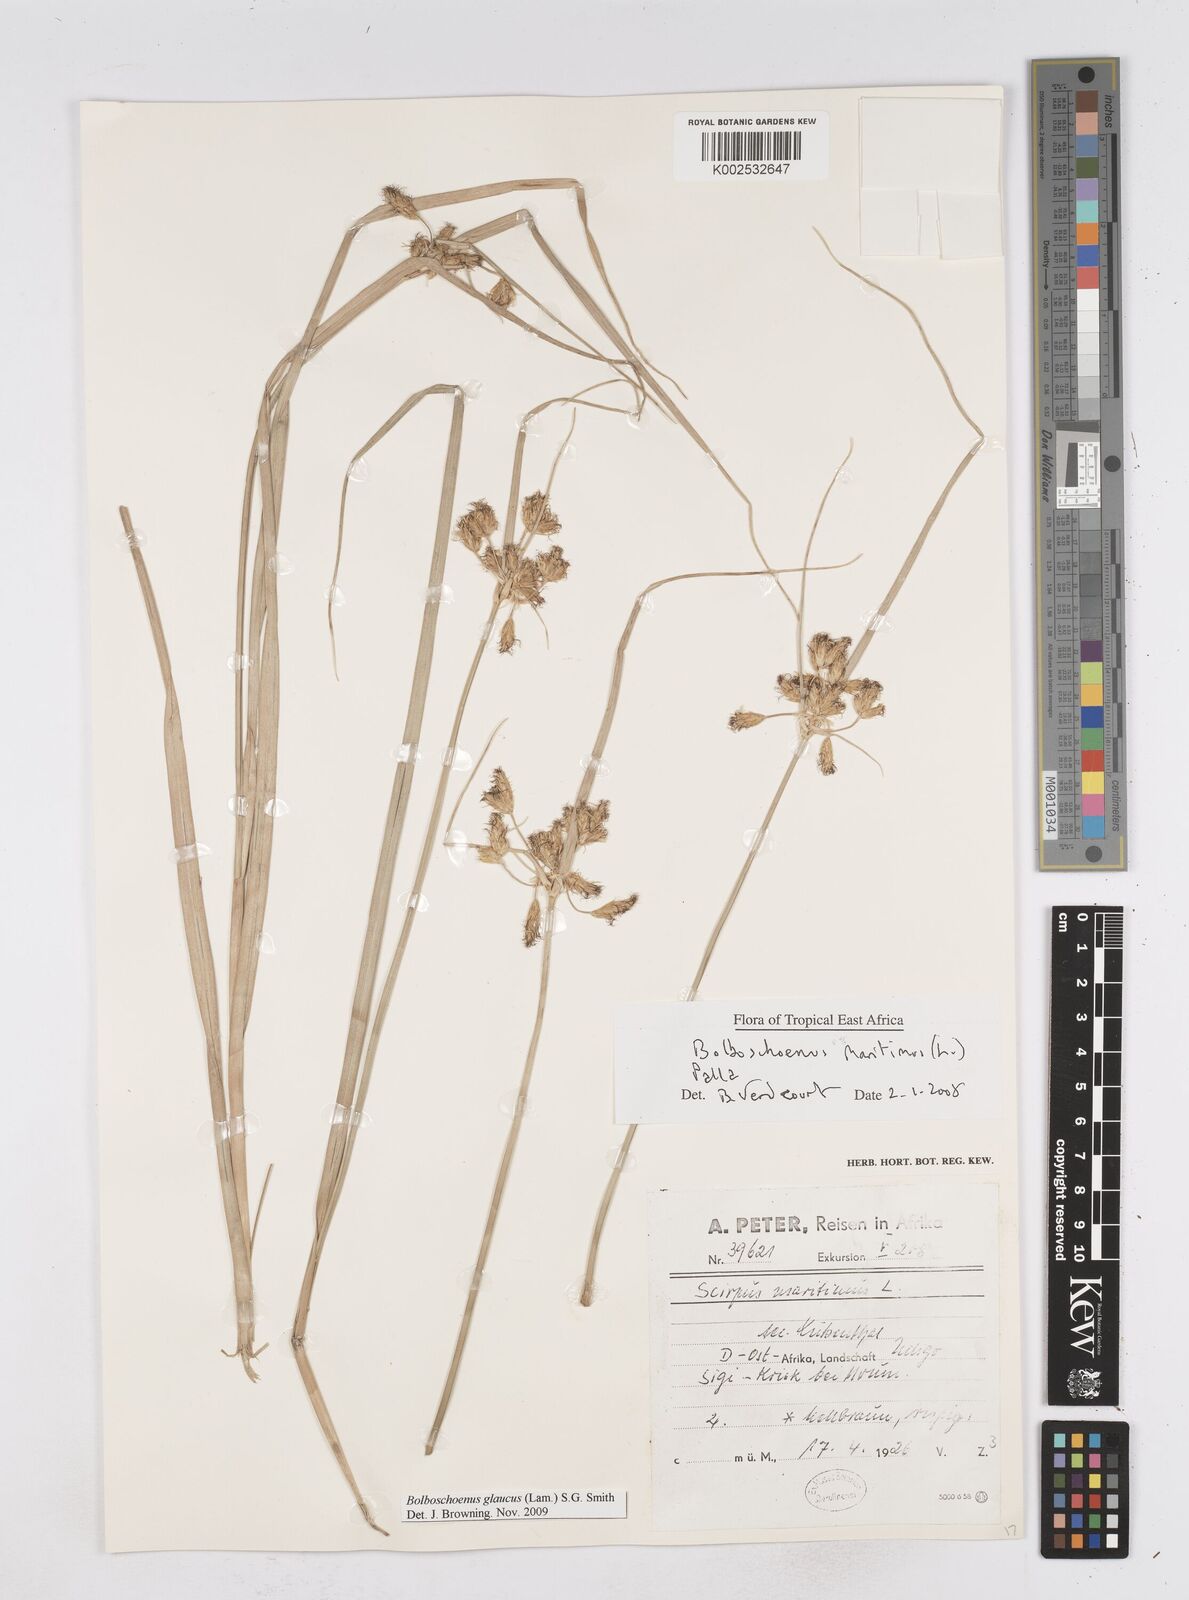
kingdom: Plantae
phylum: Tracheophyta
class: Liliopsida
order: Poales
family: Cyperaceae
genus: Bolboschoenus
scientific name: Bolboschoenus glaucus
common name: Tuberous bulrush
